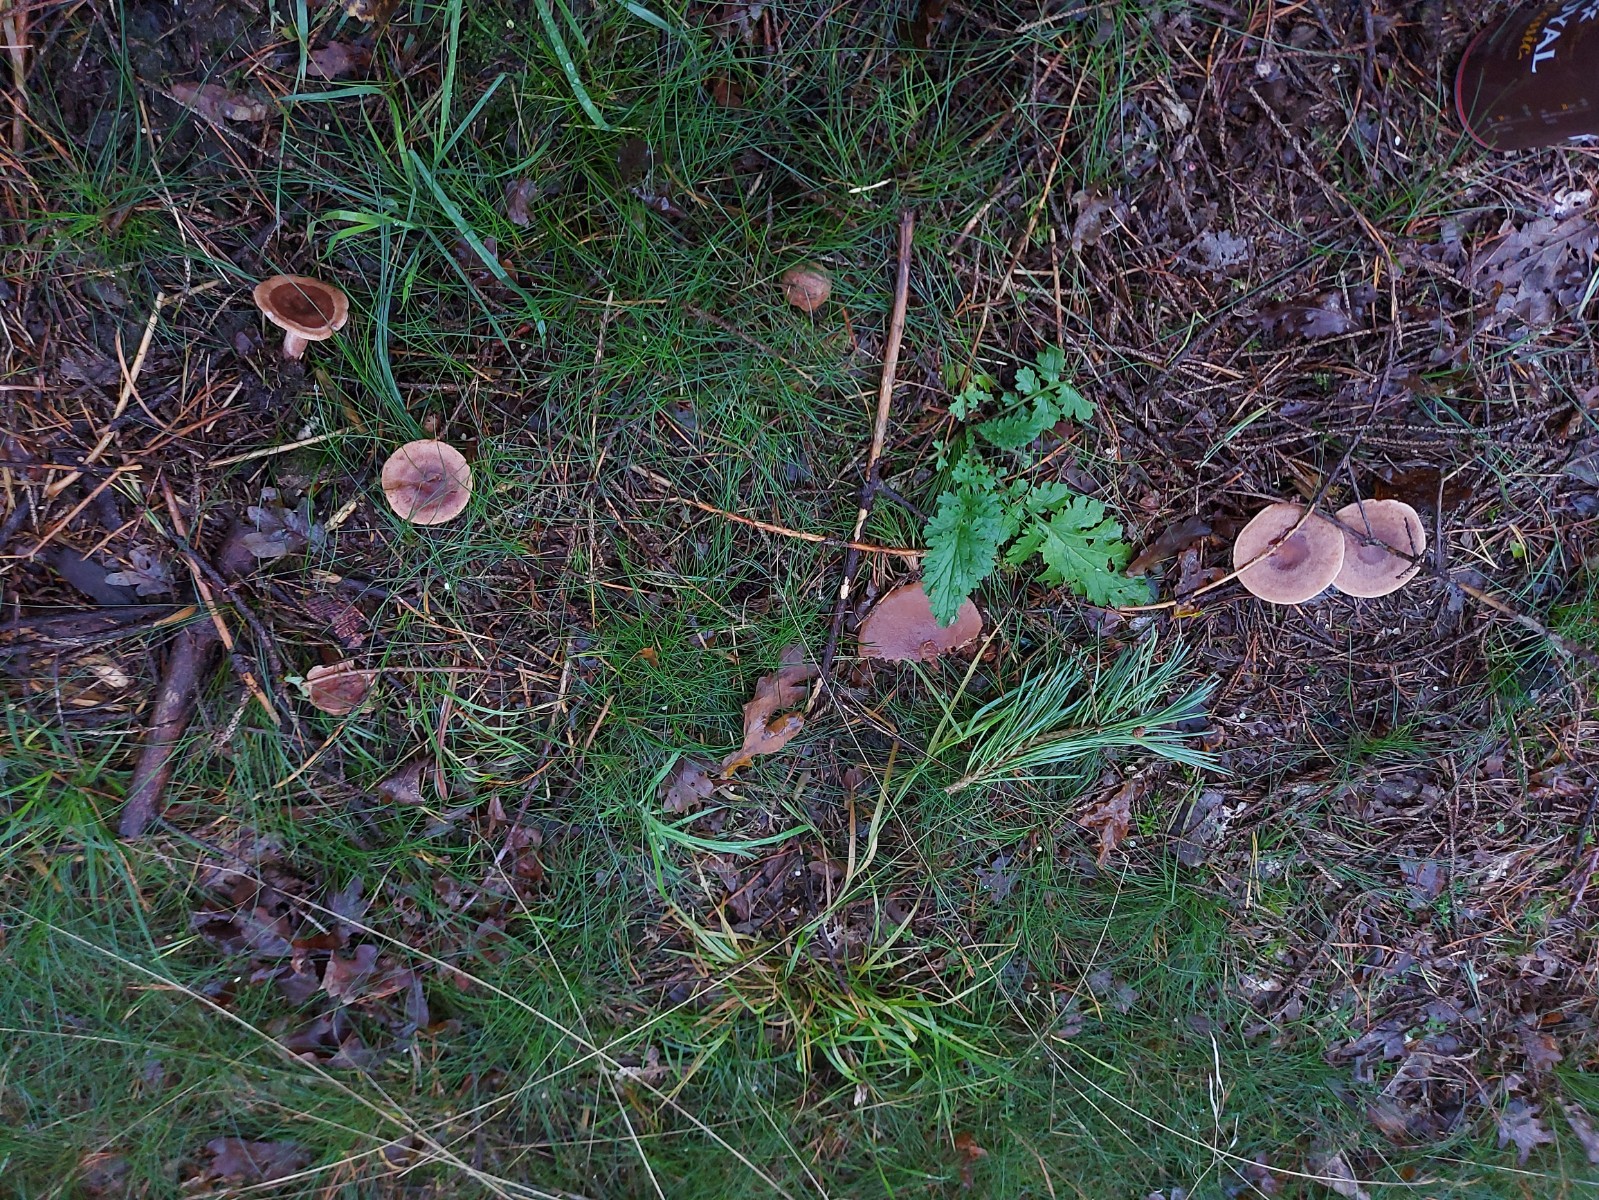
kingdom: Fungi
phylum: Basidiomycota
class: Agaricomycetes
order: Russulales
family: Russulaceae
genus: Lactarius
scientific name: Lactarius quietus
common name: ege-mælkehat
